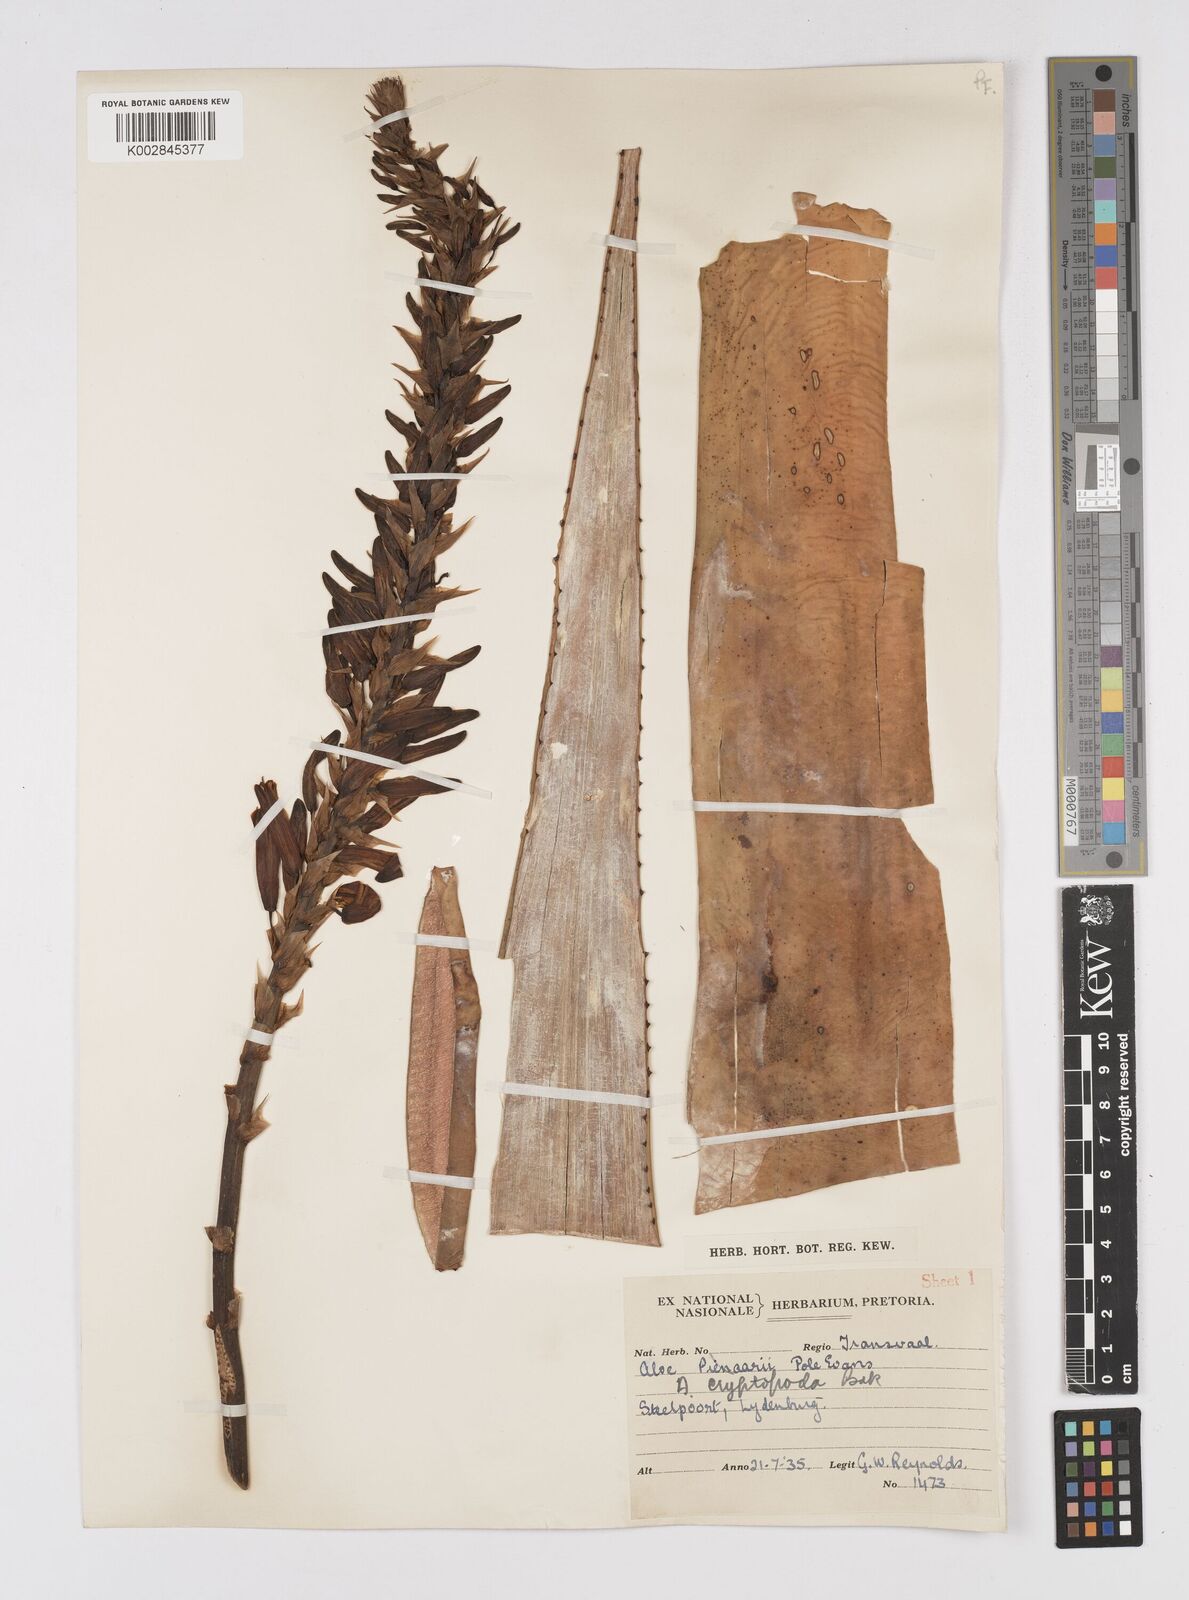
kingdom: Plantae
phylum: Tracheophyta
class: Liliopsida
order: Asparagales
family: Asphodelaceae
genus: Aloe
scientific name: Aloe cryptopoda
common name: Dr. kirk's aloe
